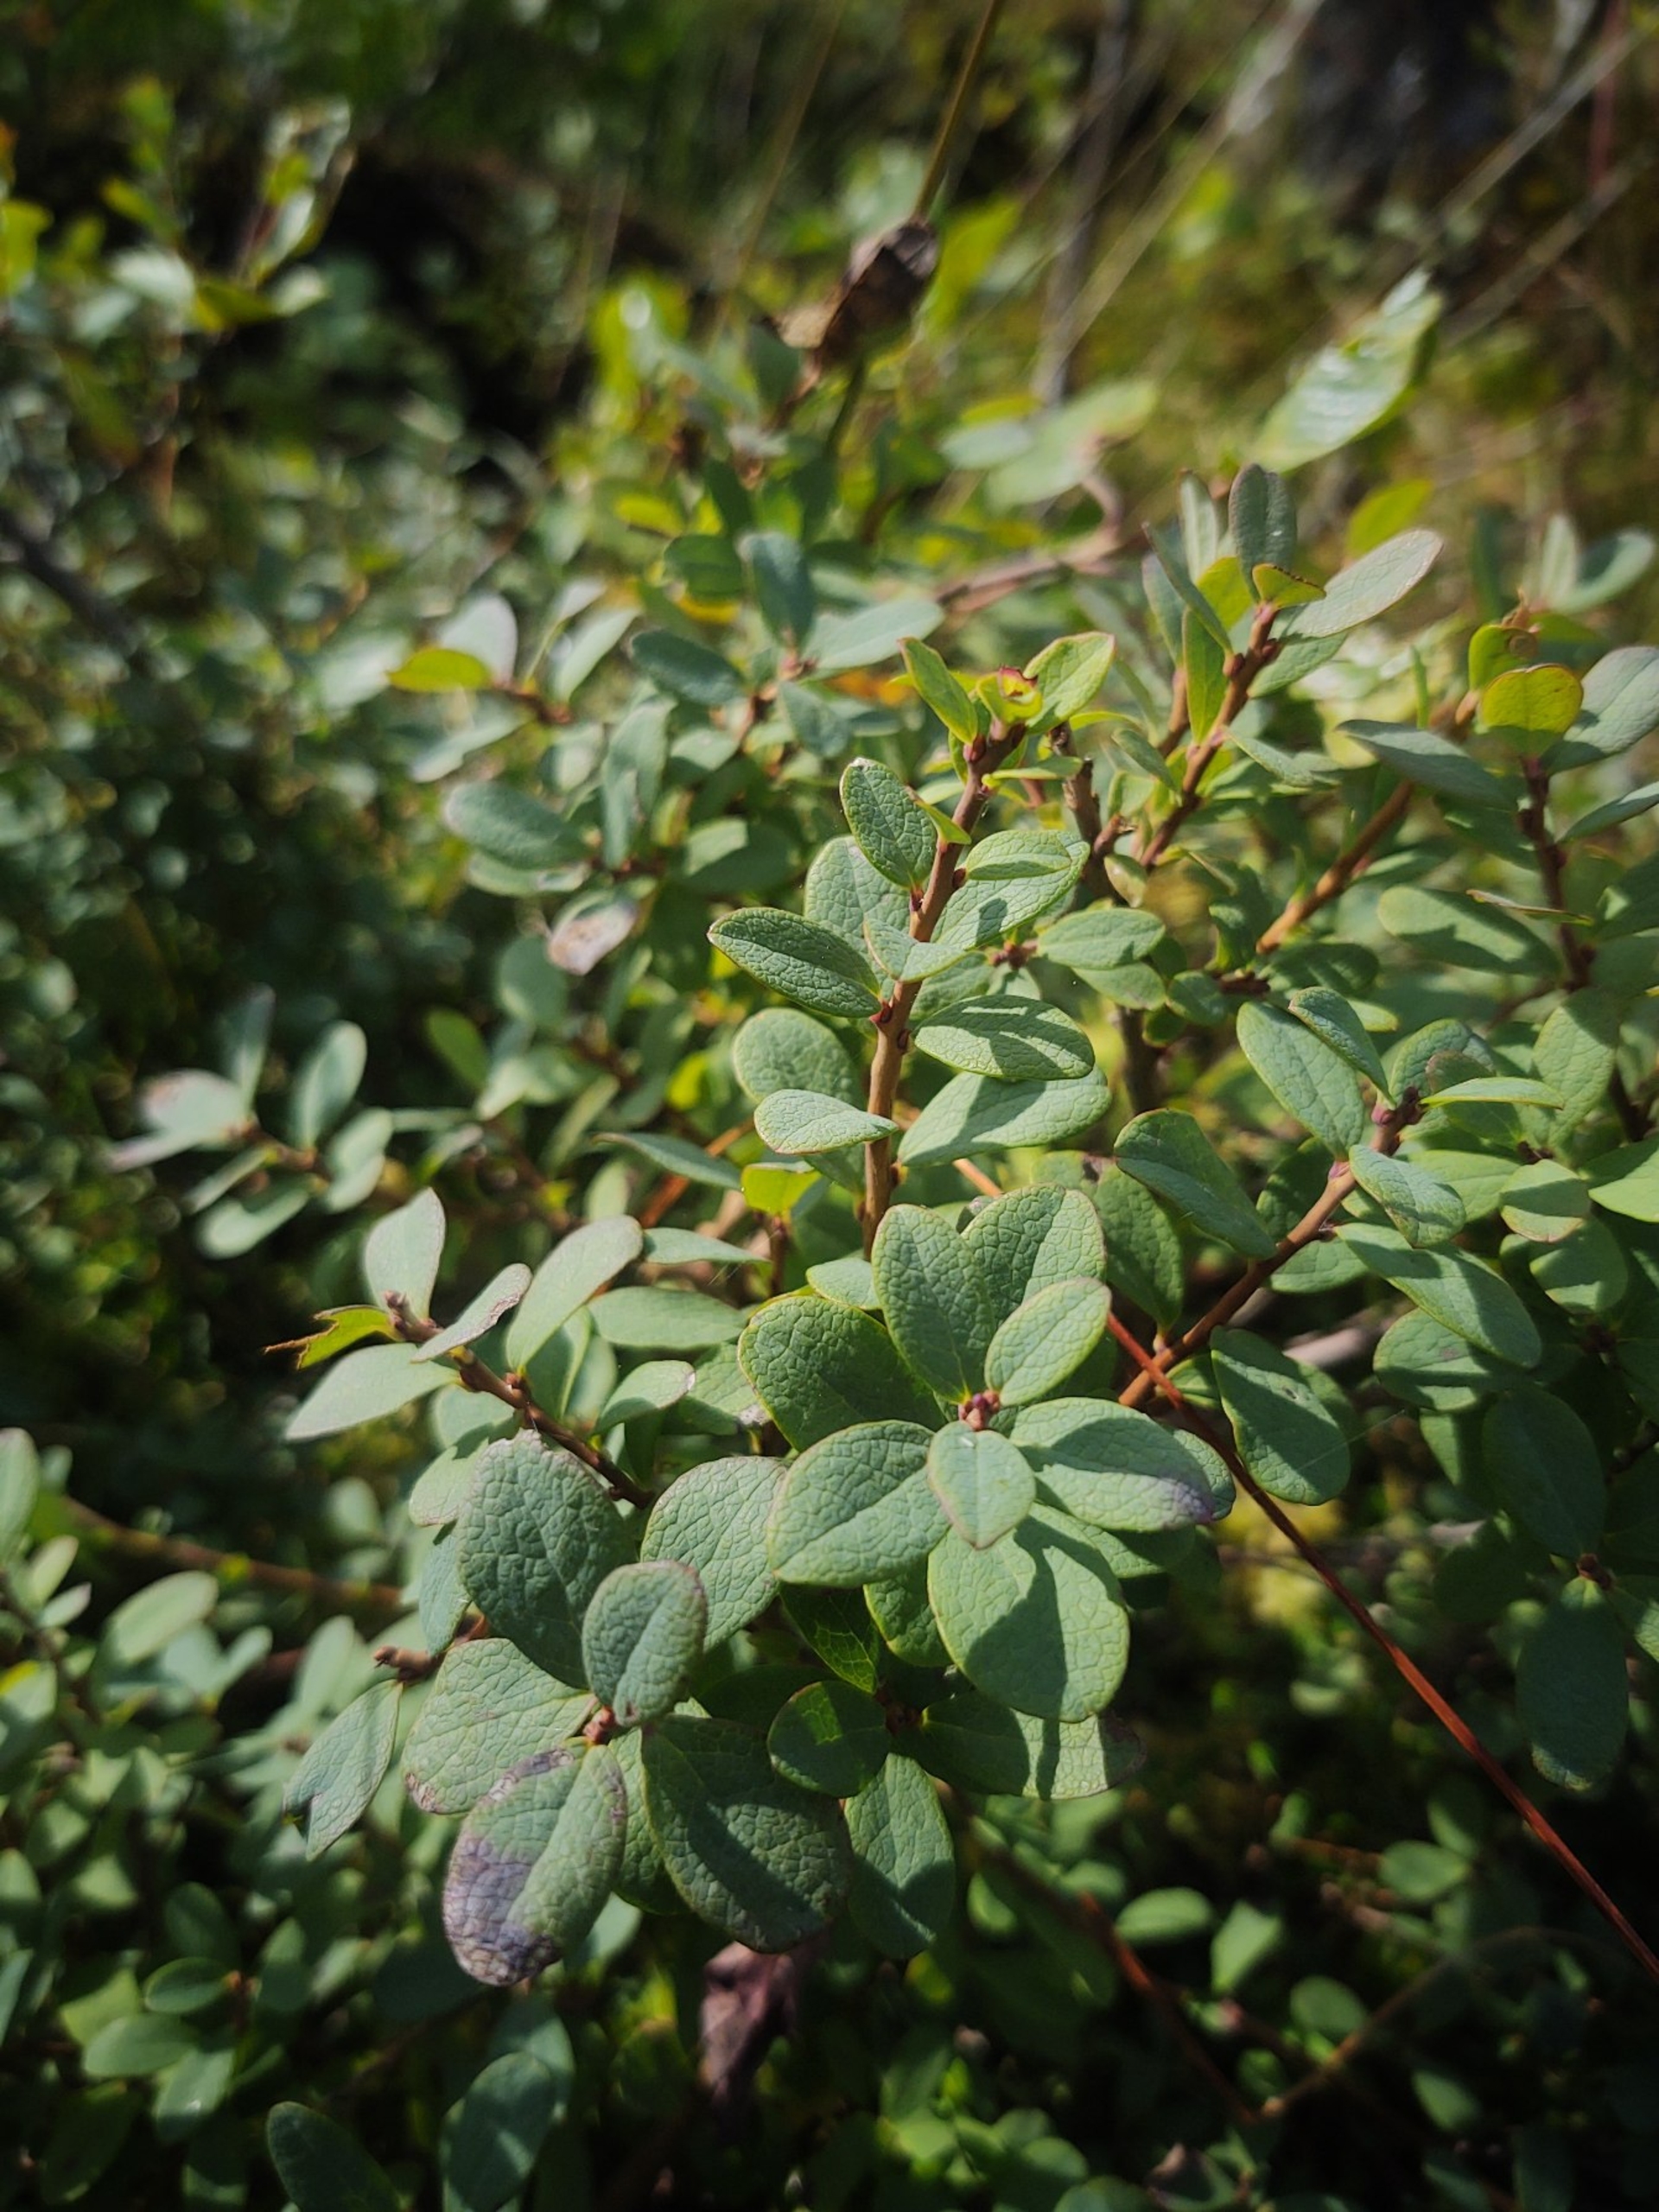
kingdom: Plantae
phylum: Tracheophyta
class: Magnoliopsida
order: Ericales
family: Ericaceae
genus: Vaccinium
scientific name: Vaccinium uliginosum
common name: Mose-bølle
